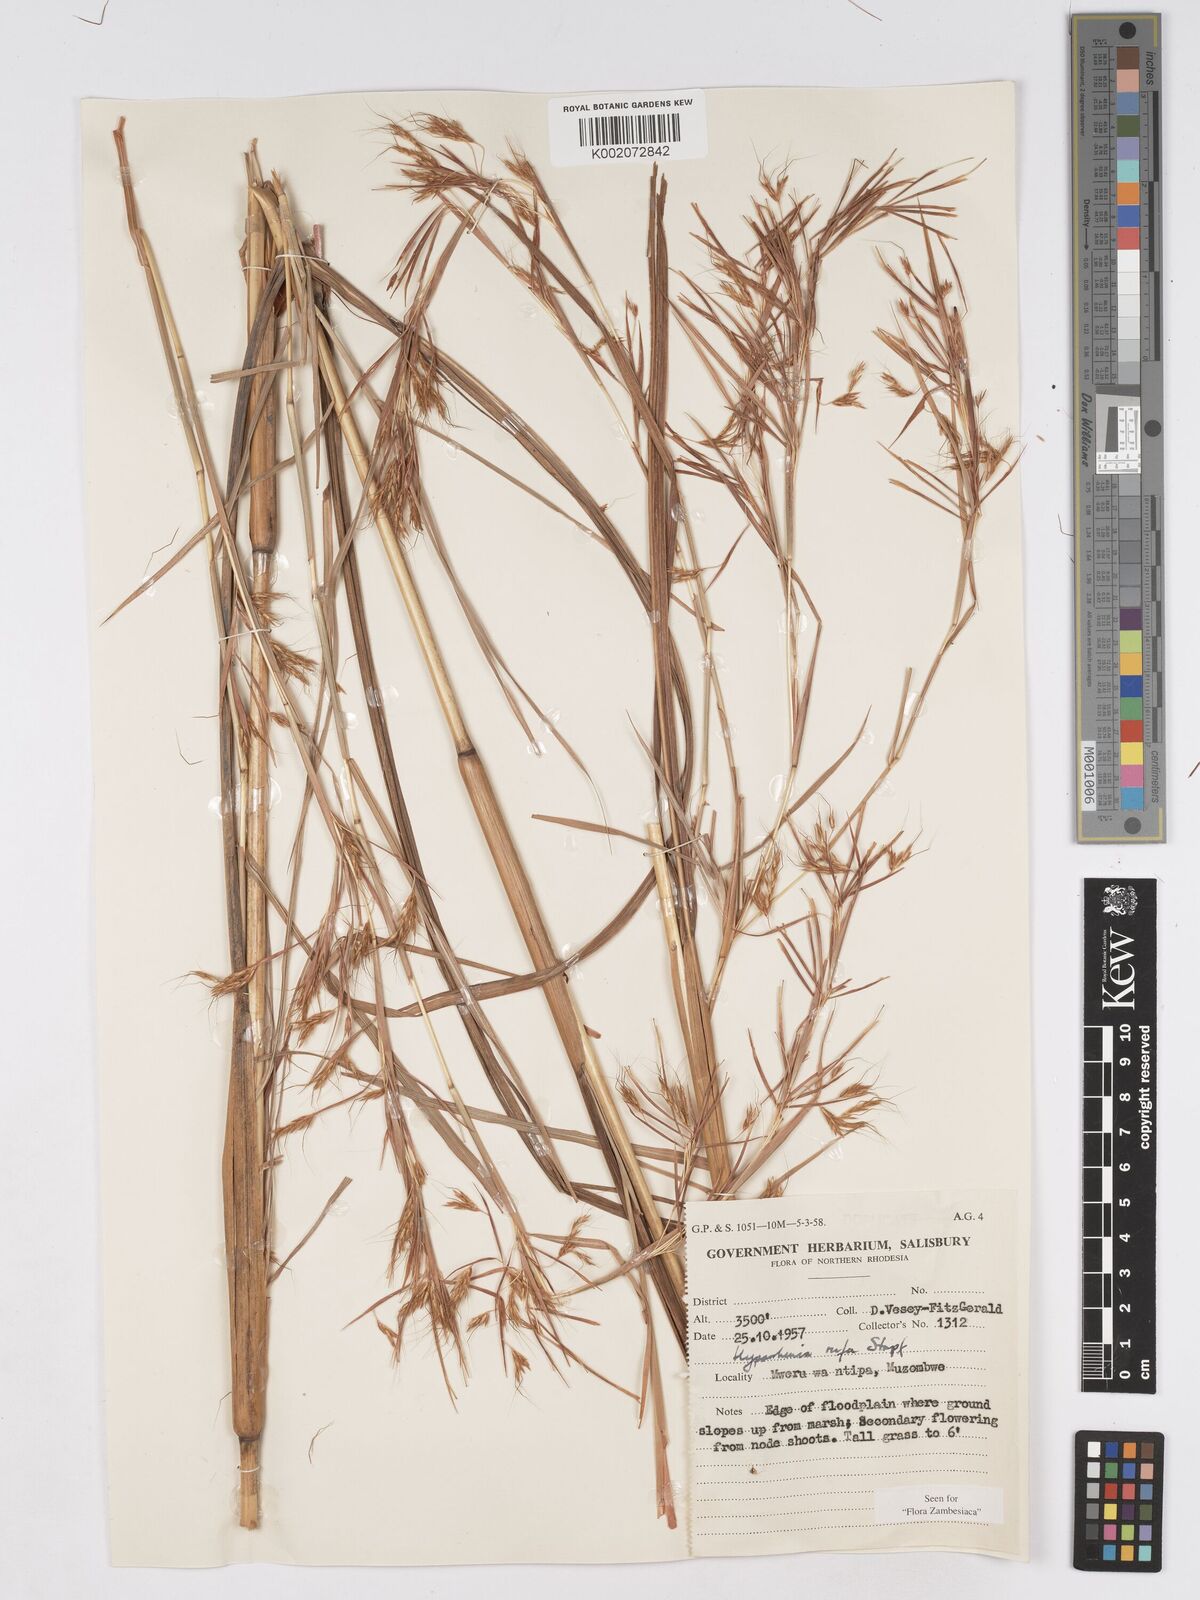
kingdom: Plantae
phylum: Tracheophyta
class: Liliopsida
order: Poales
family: Poaceae
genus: Hyparrhenia
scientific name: Hyparrhenia rufa
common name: Jaraguagrass
